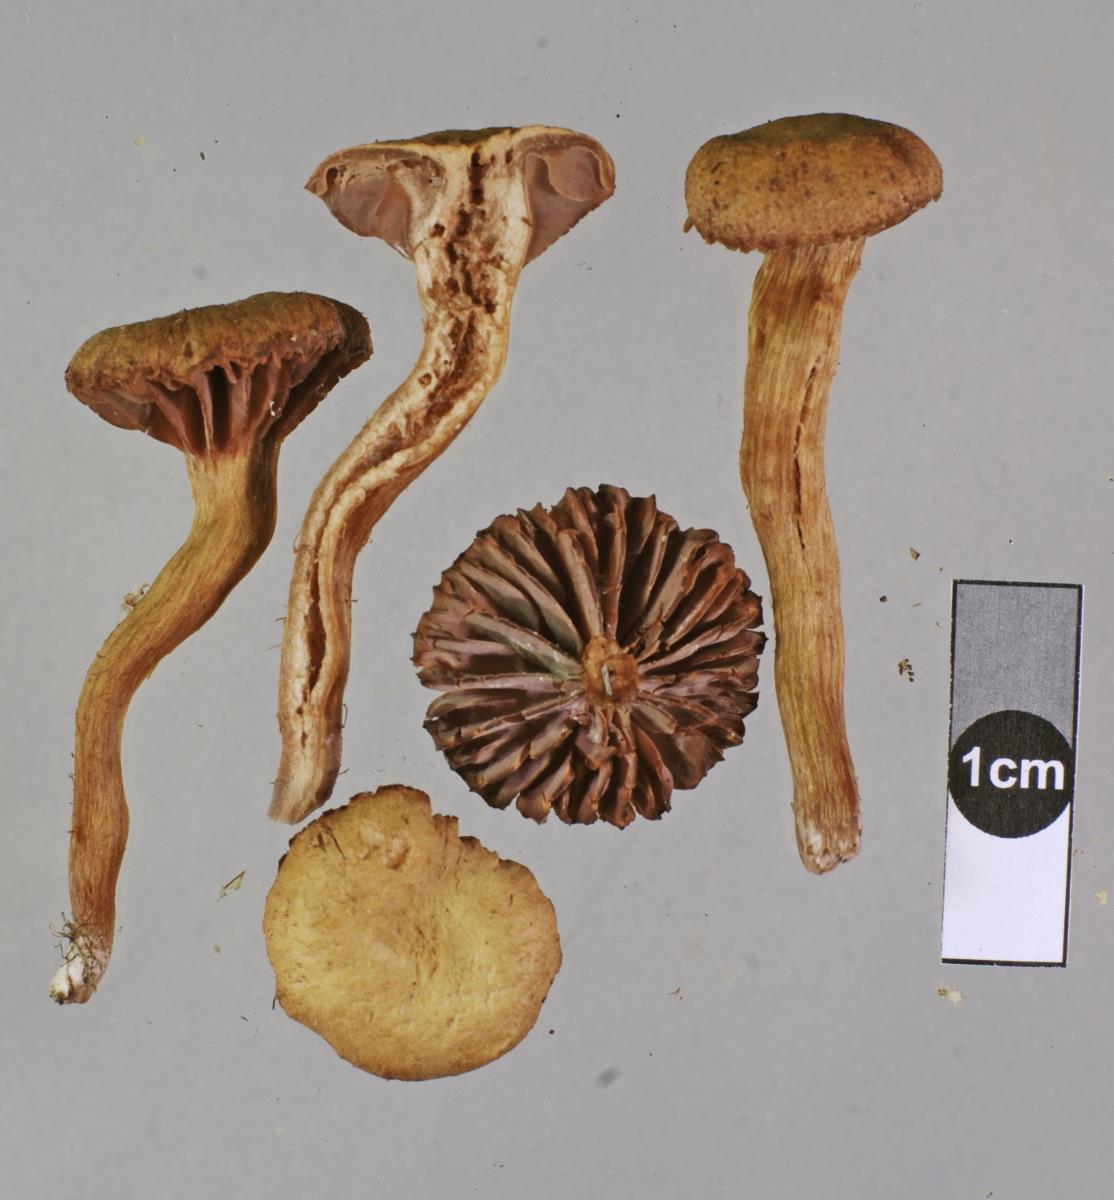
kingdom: Fungi
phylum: Basidiomycota
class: Agaricomycetes
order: Agaricales
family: Hydnangiaceae
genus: Laccaria
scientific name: Laccaria pumila
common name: Willow deceiver
